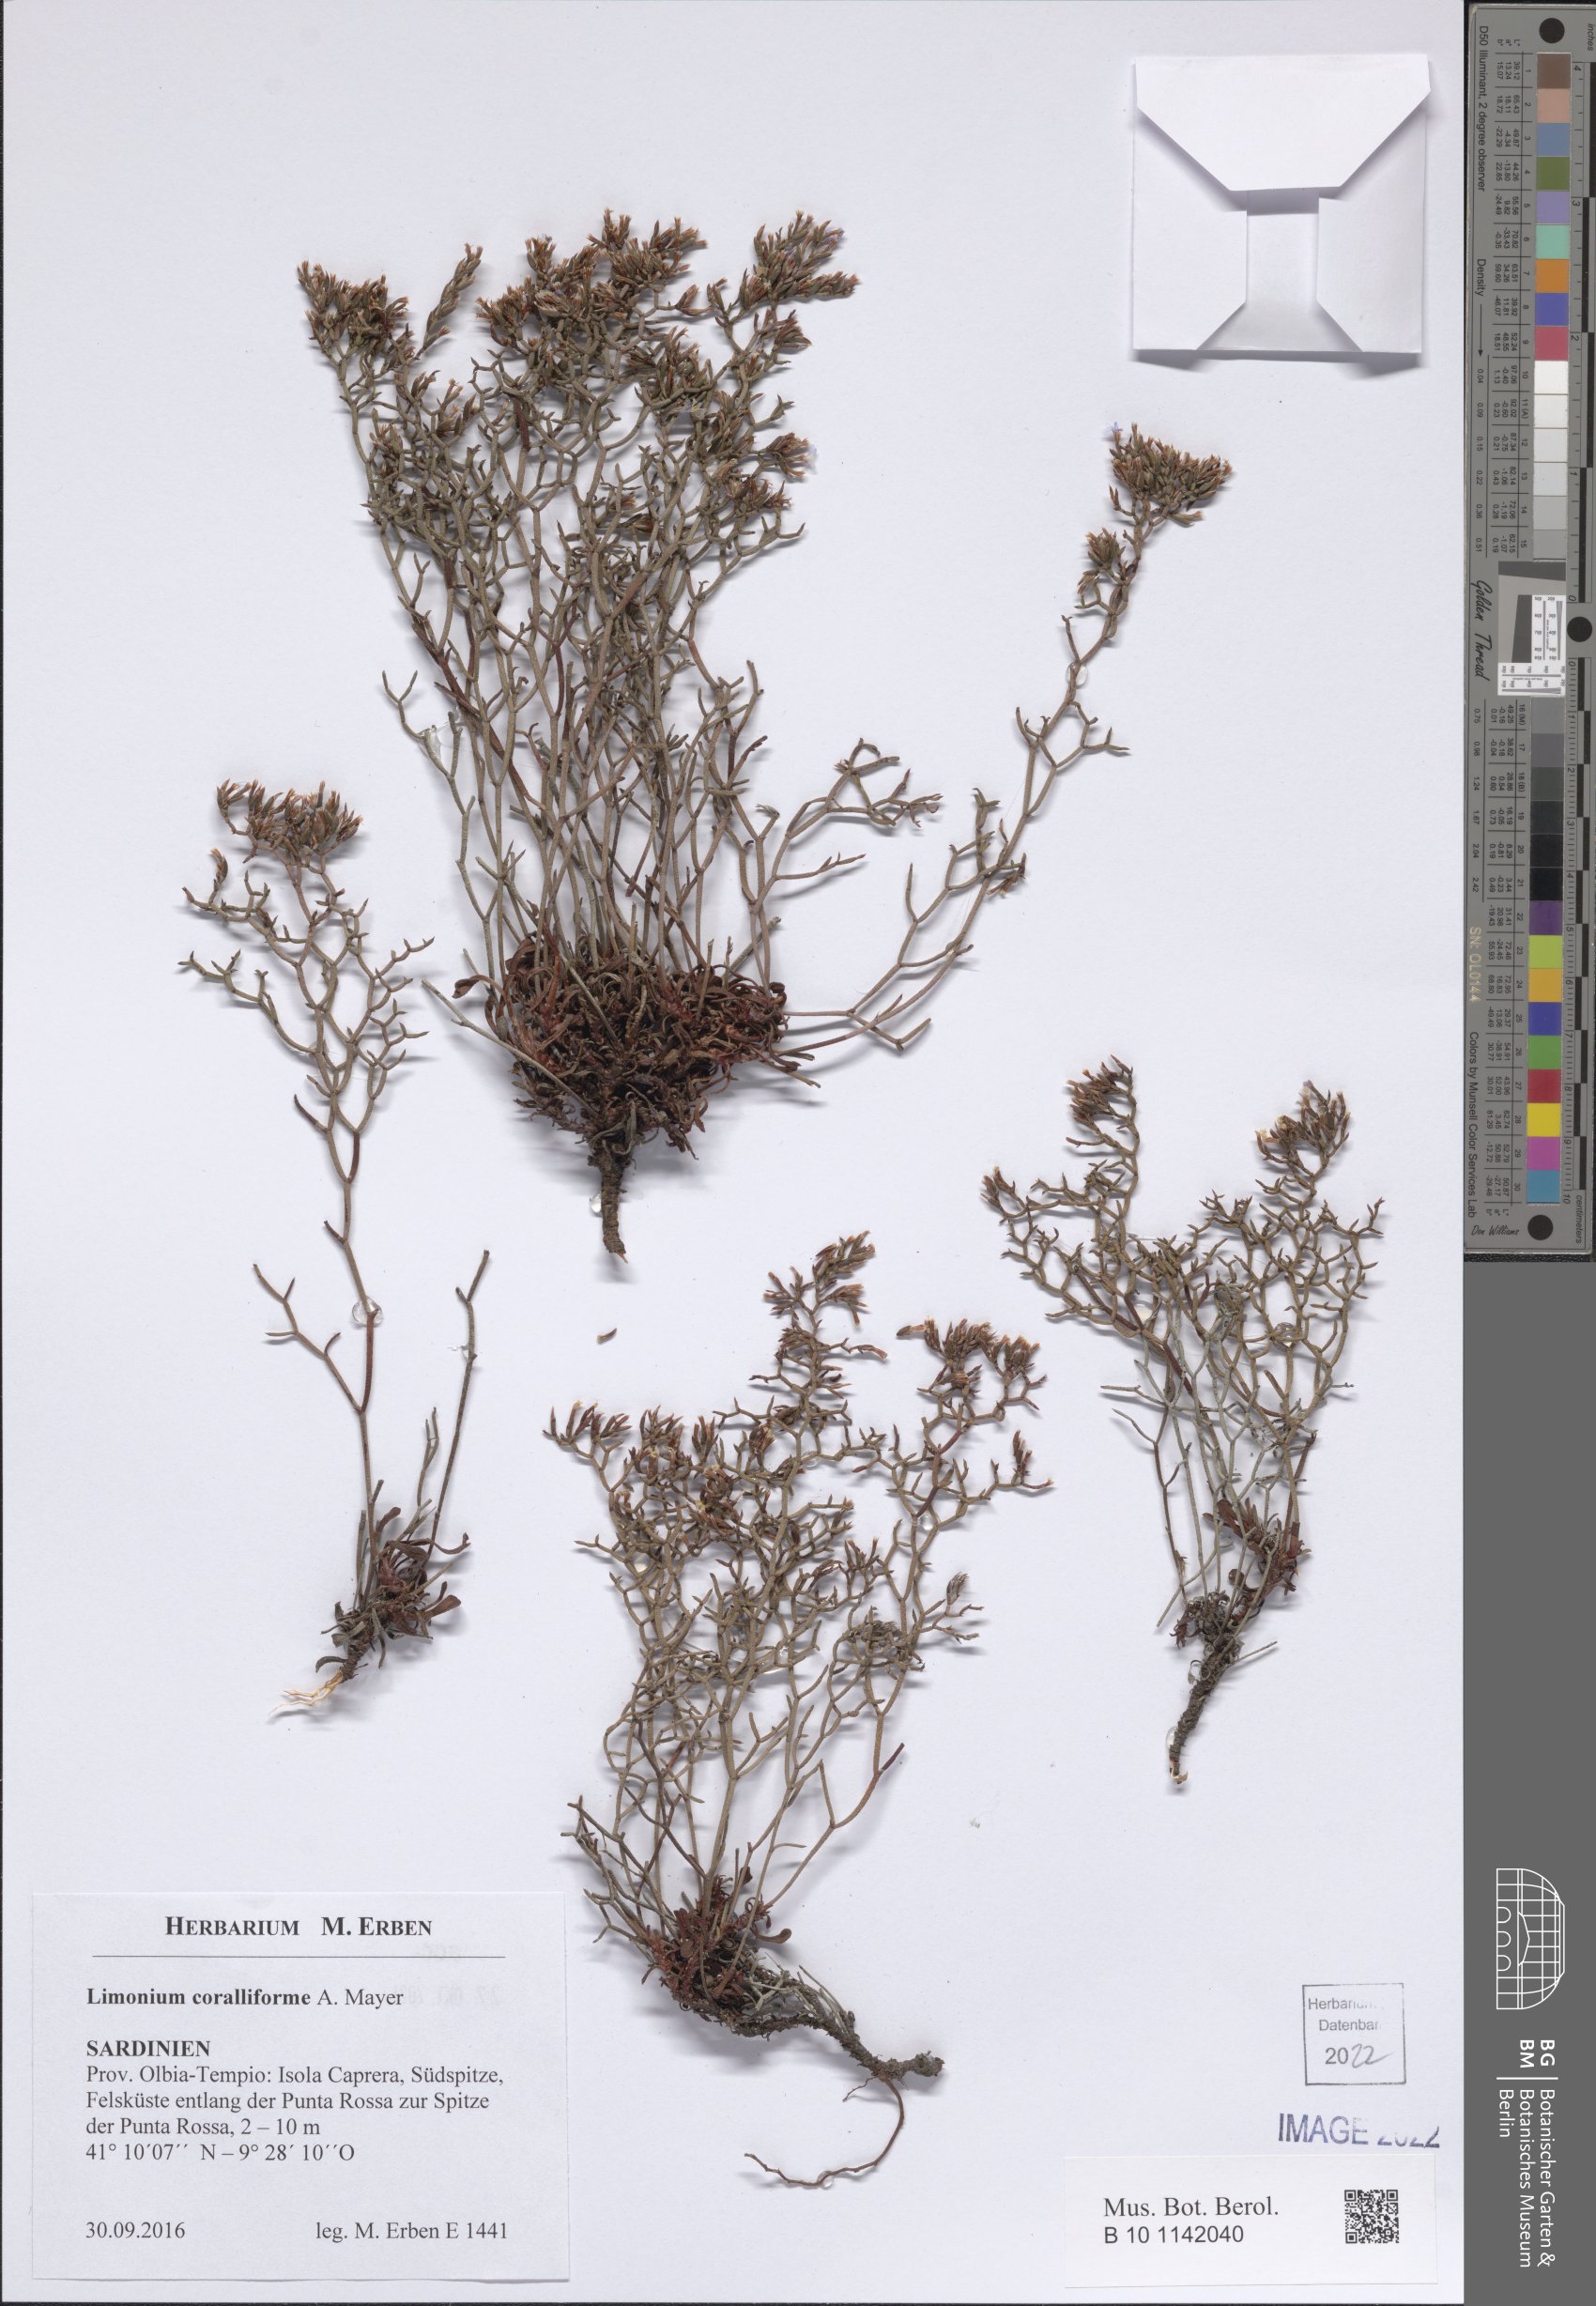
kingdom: Plantae
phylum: Tracheophyta
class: Magnoliopsida
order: Caryophyllales
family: Plumbaginaceae
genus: Limonium
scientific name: Limonium coralliforme
